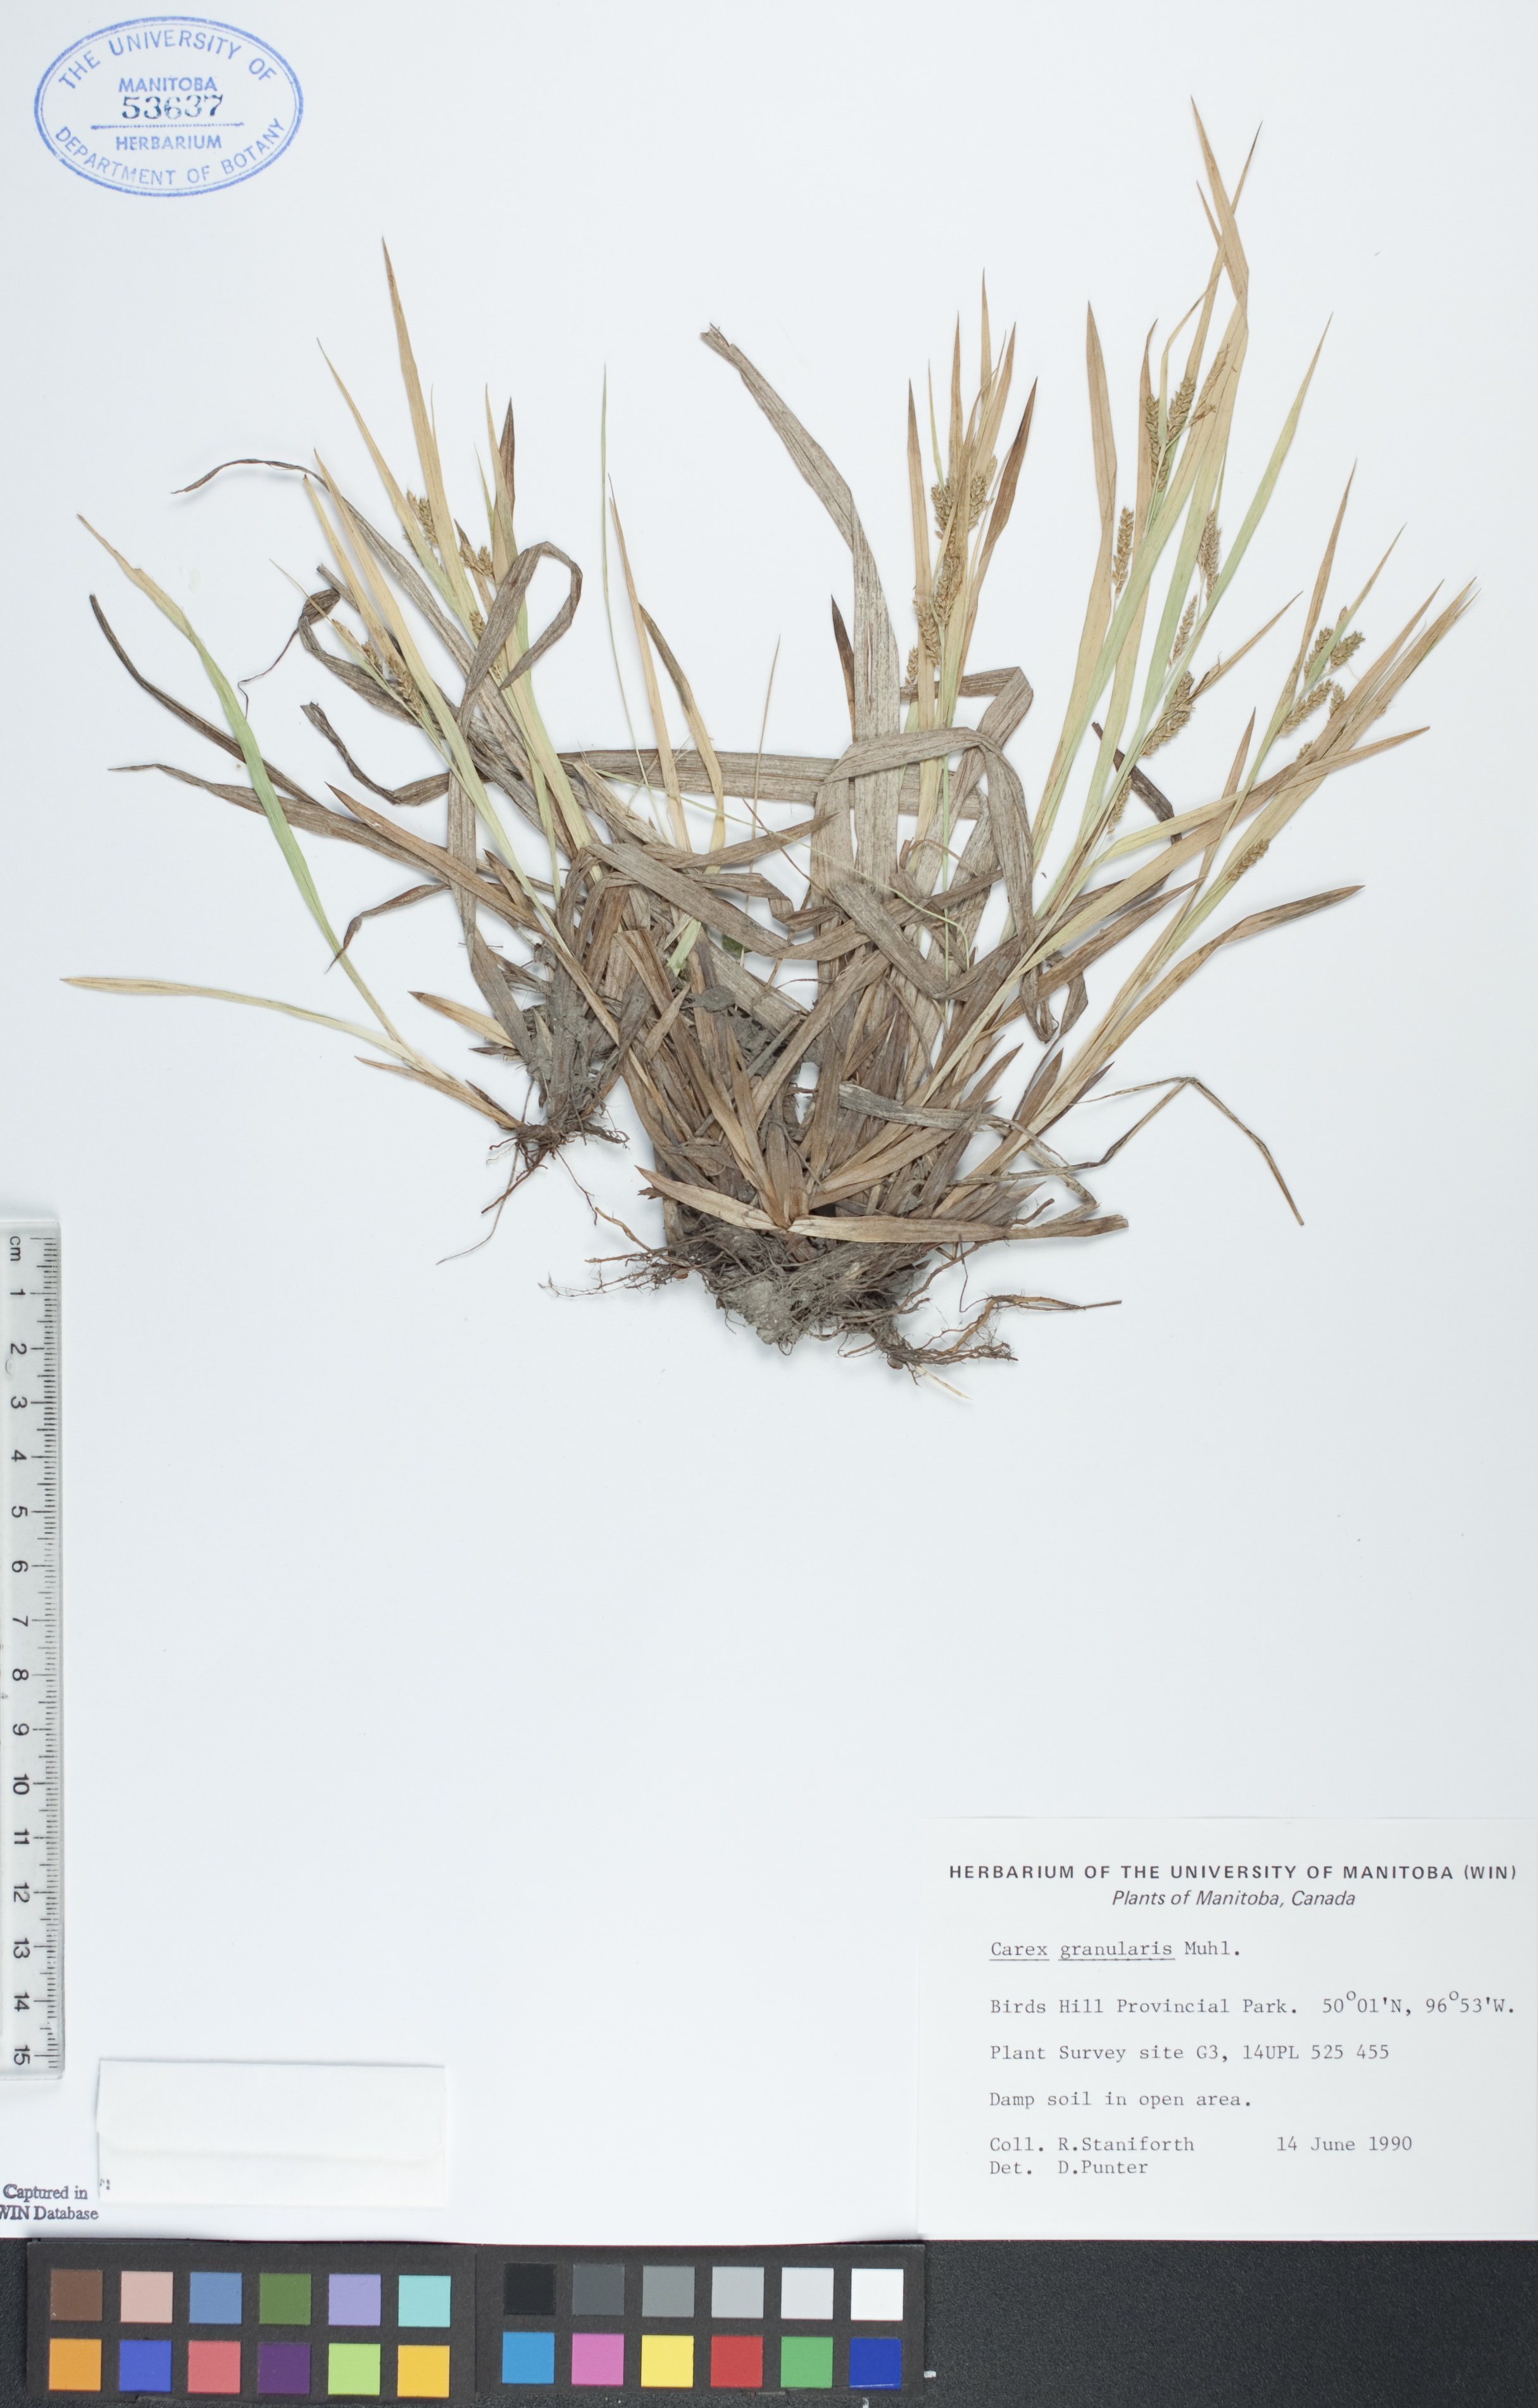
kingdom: Plantae
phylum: Tracheophyta
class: Liliopsida
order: Poales
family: Cyperaceae
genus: Carex
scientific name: Carex granularis
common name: Granular sedge
